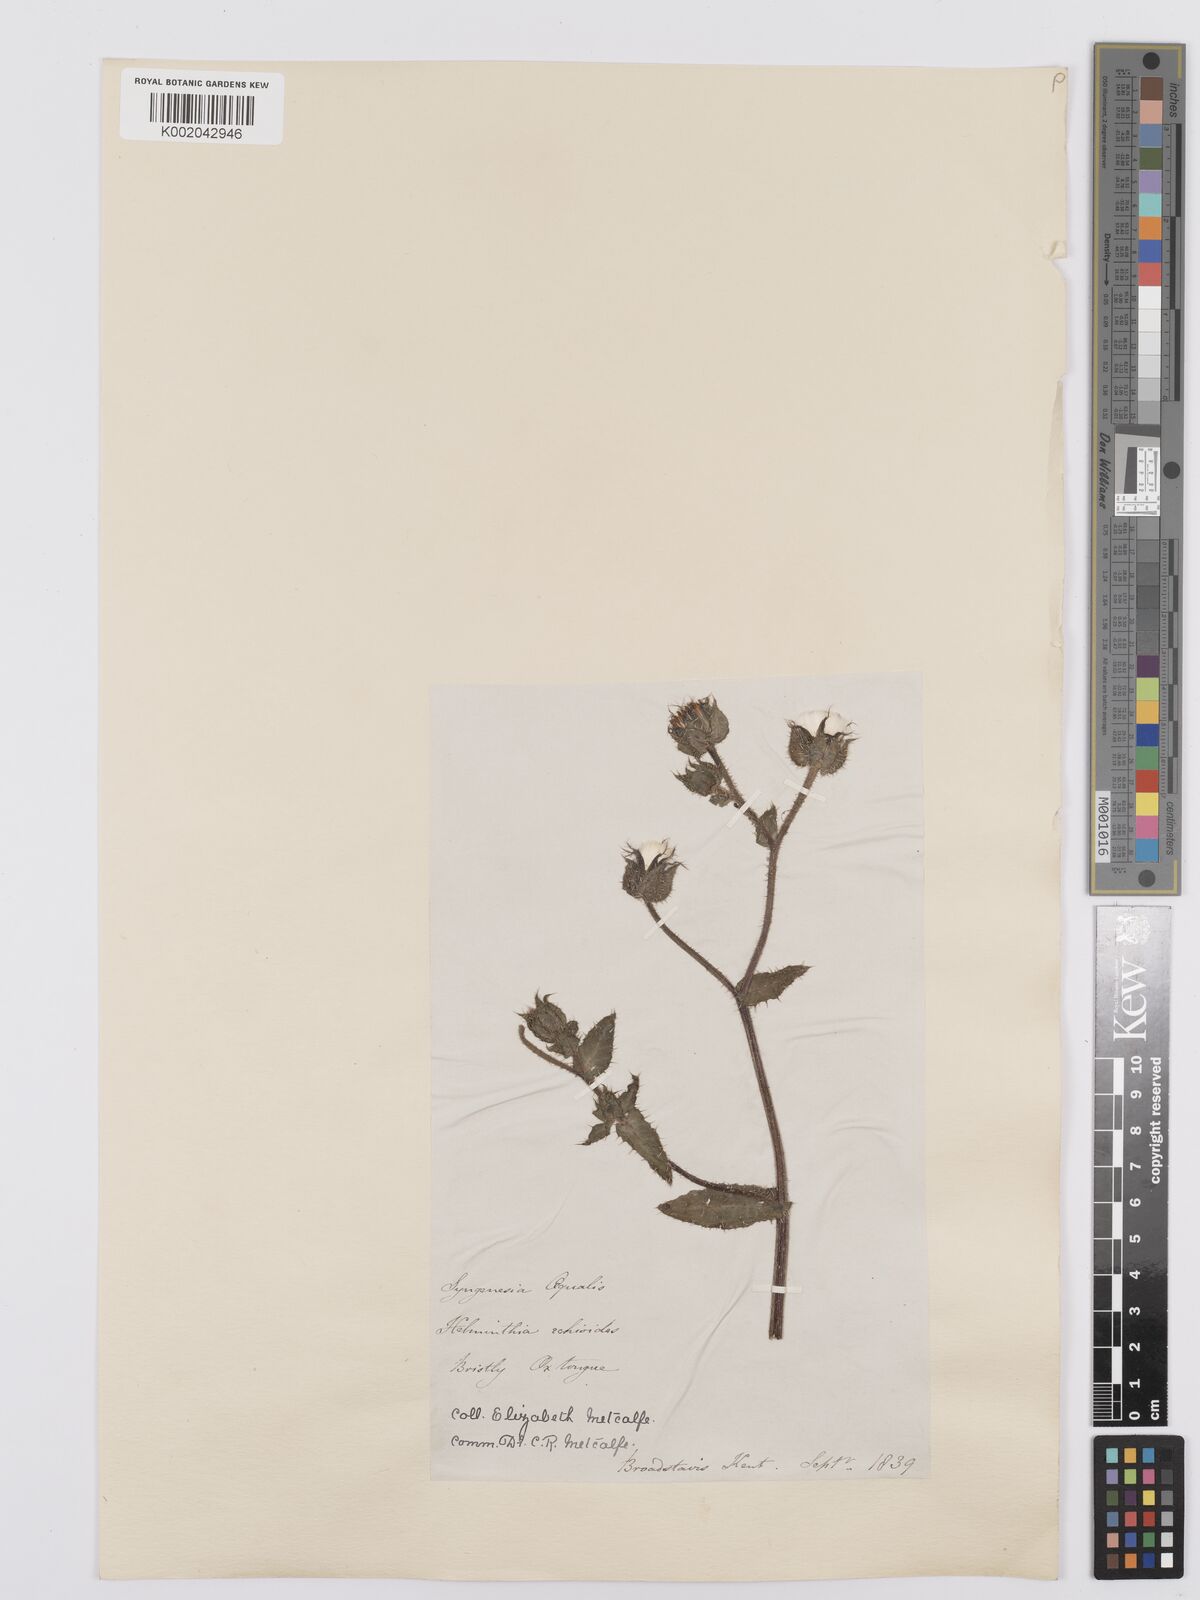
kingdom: Plantae
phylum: Tracheophyta
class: Magnoliopsida
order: Asterales
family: Asteraceae
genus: Helminthotheca
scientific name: Helminthotheca echioides
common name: Ox-tongue
